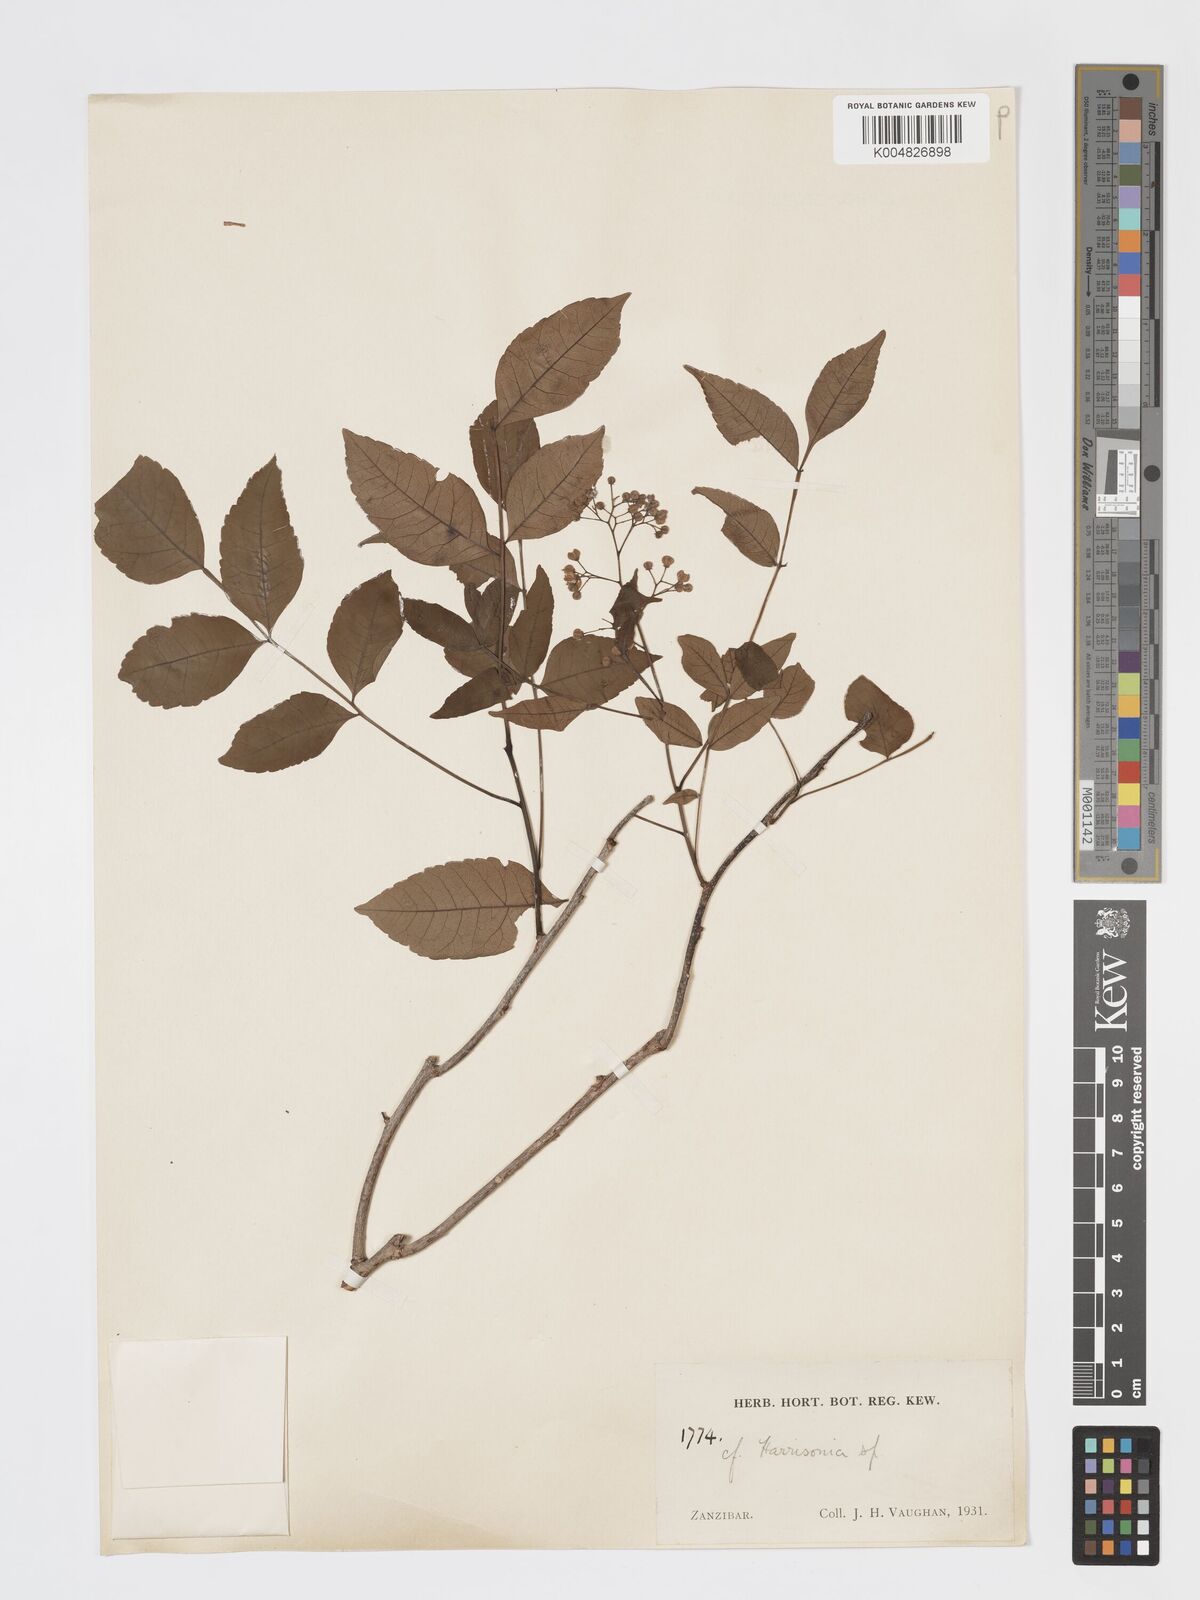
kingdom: Plantae
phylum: Tracheophyta
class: Magnoliopsida
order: Sapindales
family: Rutaceae
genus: Harrisonia
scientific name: Harrisonia abyssinica
